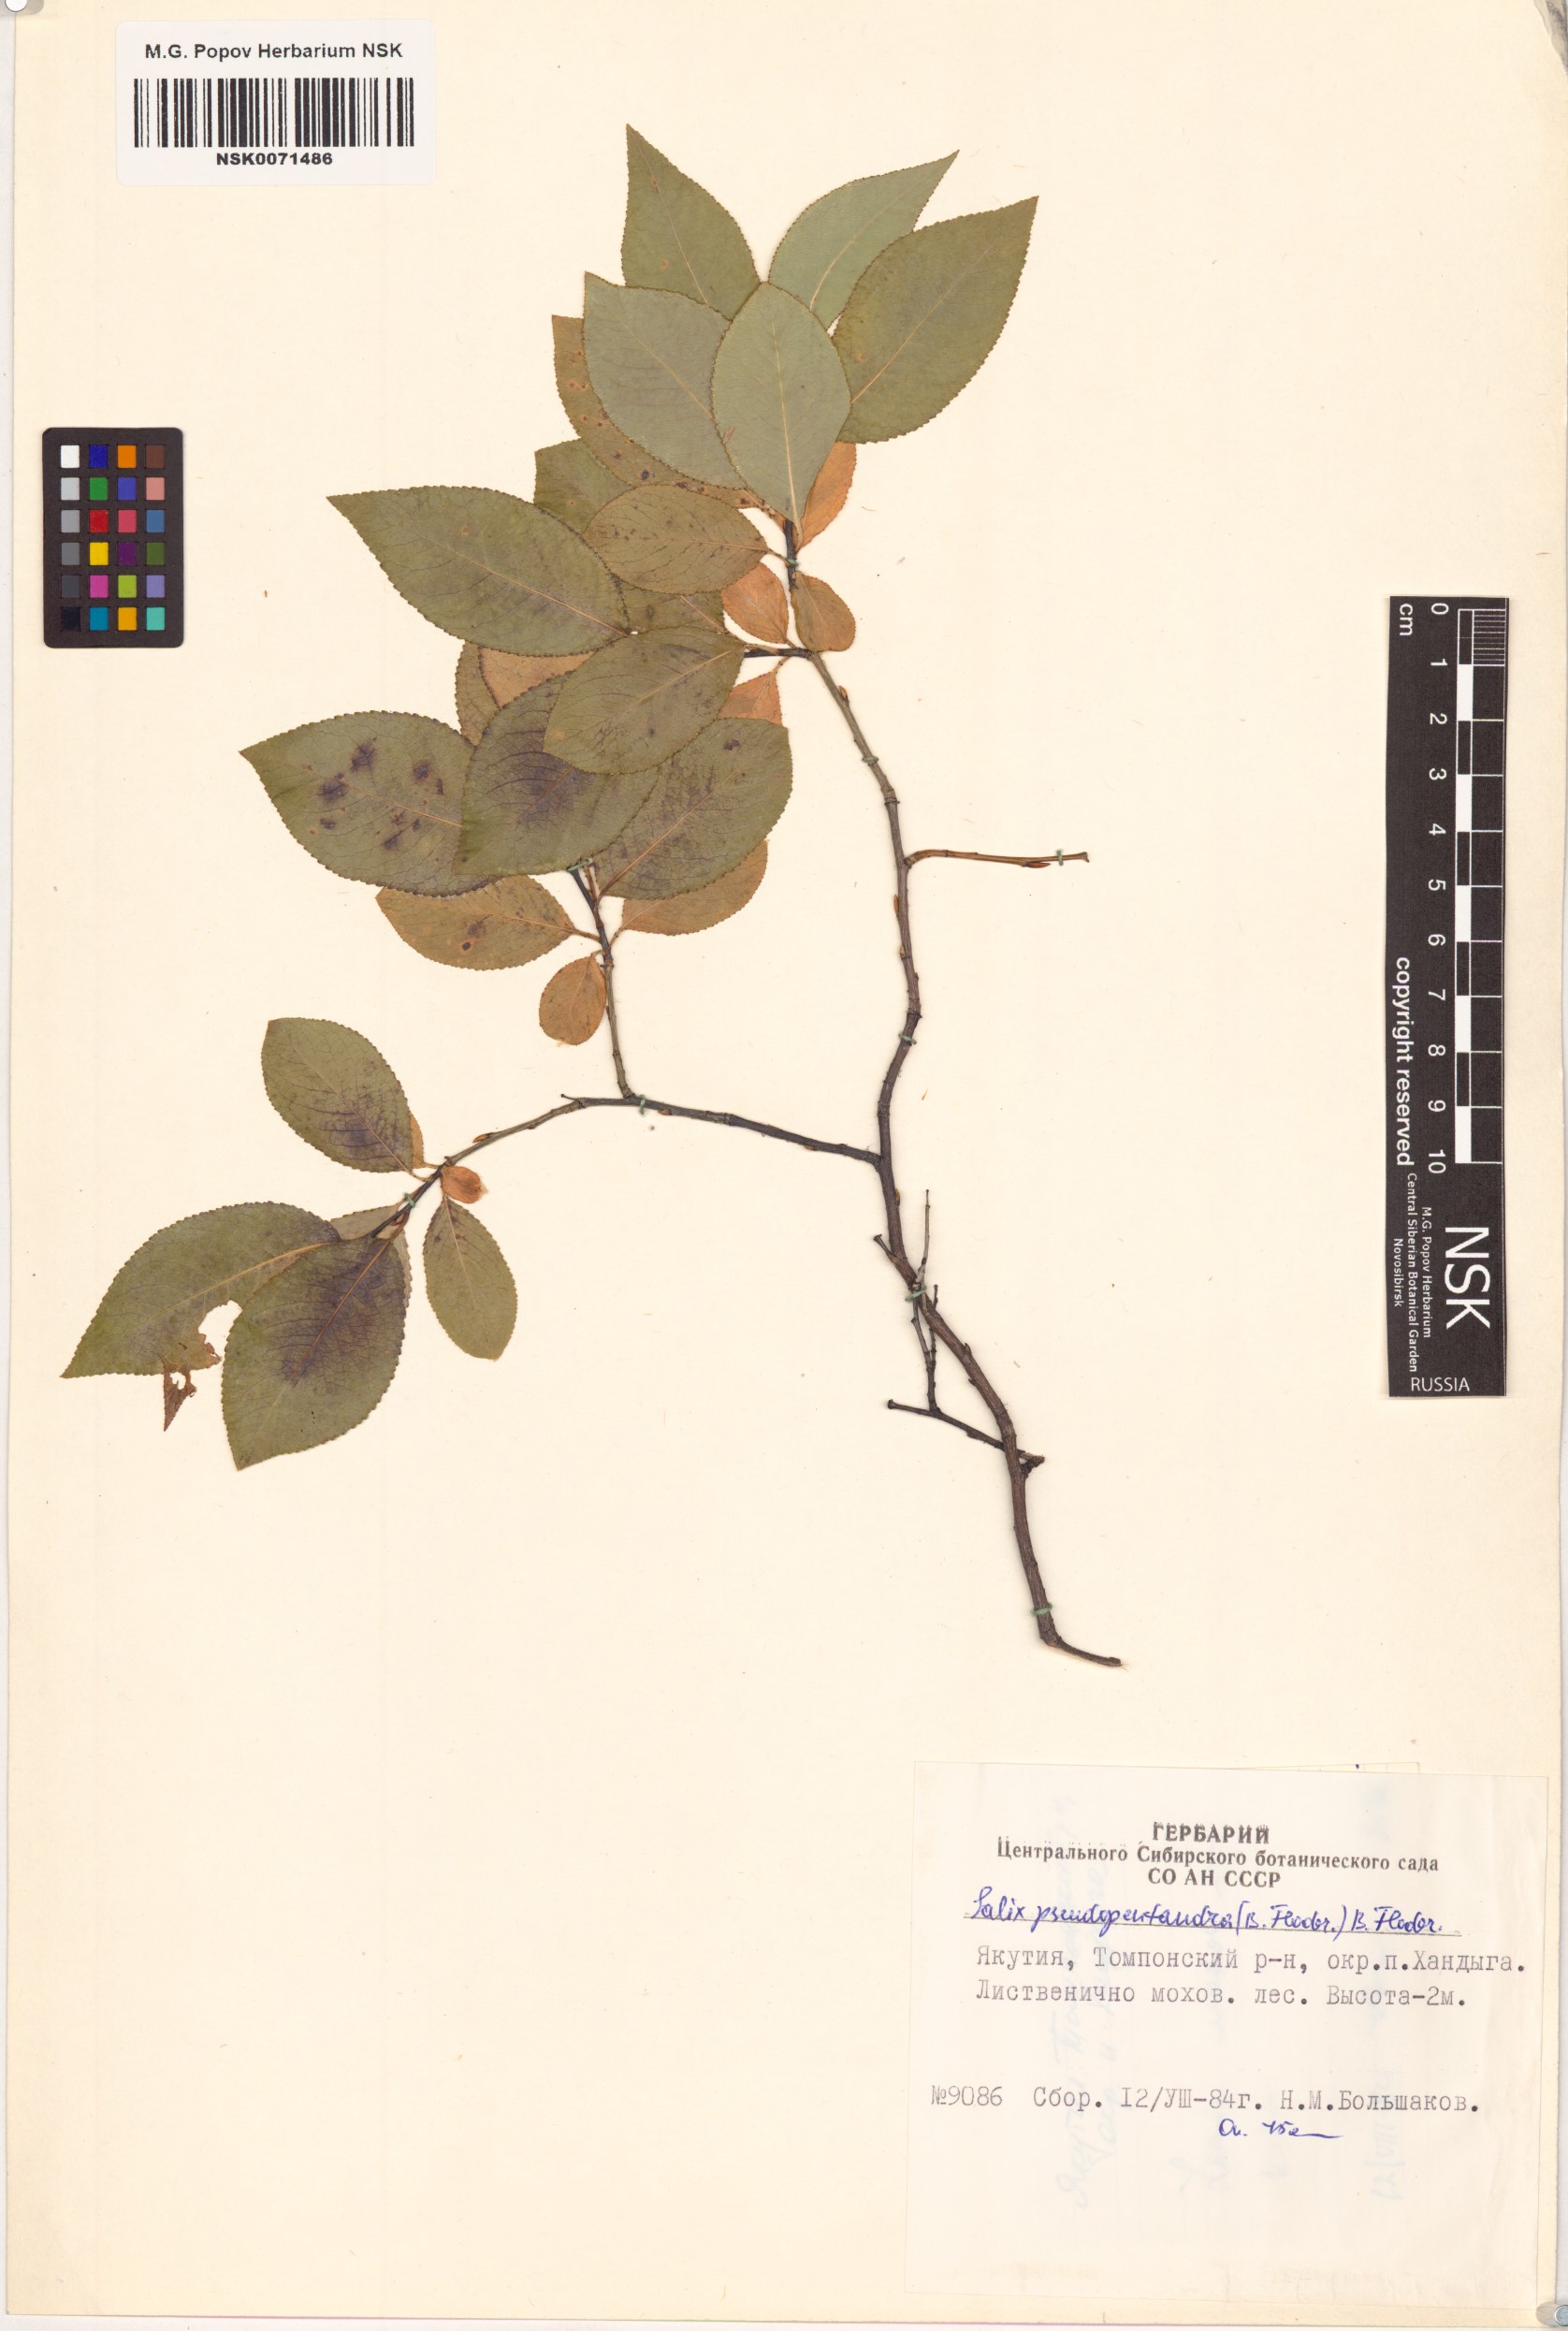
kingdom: Plantae
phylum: Tracheophyta
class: Magnoliopsida
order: Malpighiales
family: Salicaceae
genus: Salix
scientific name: Salix pseudopentandra
